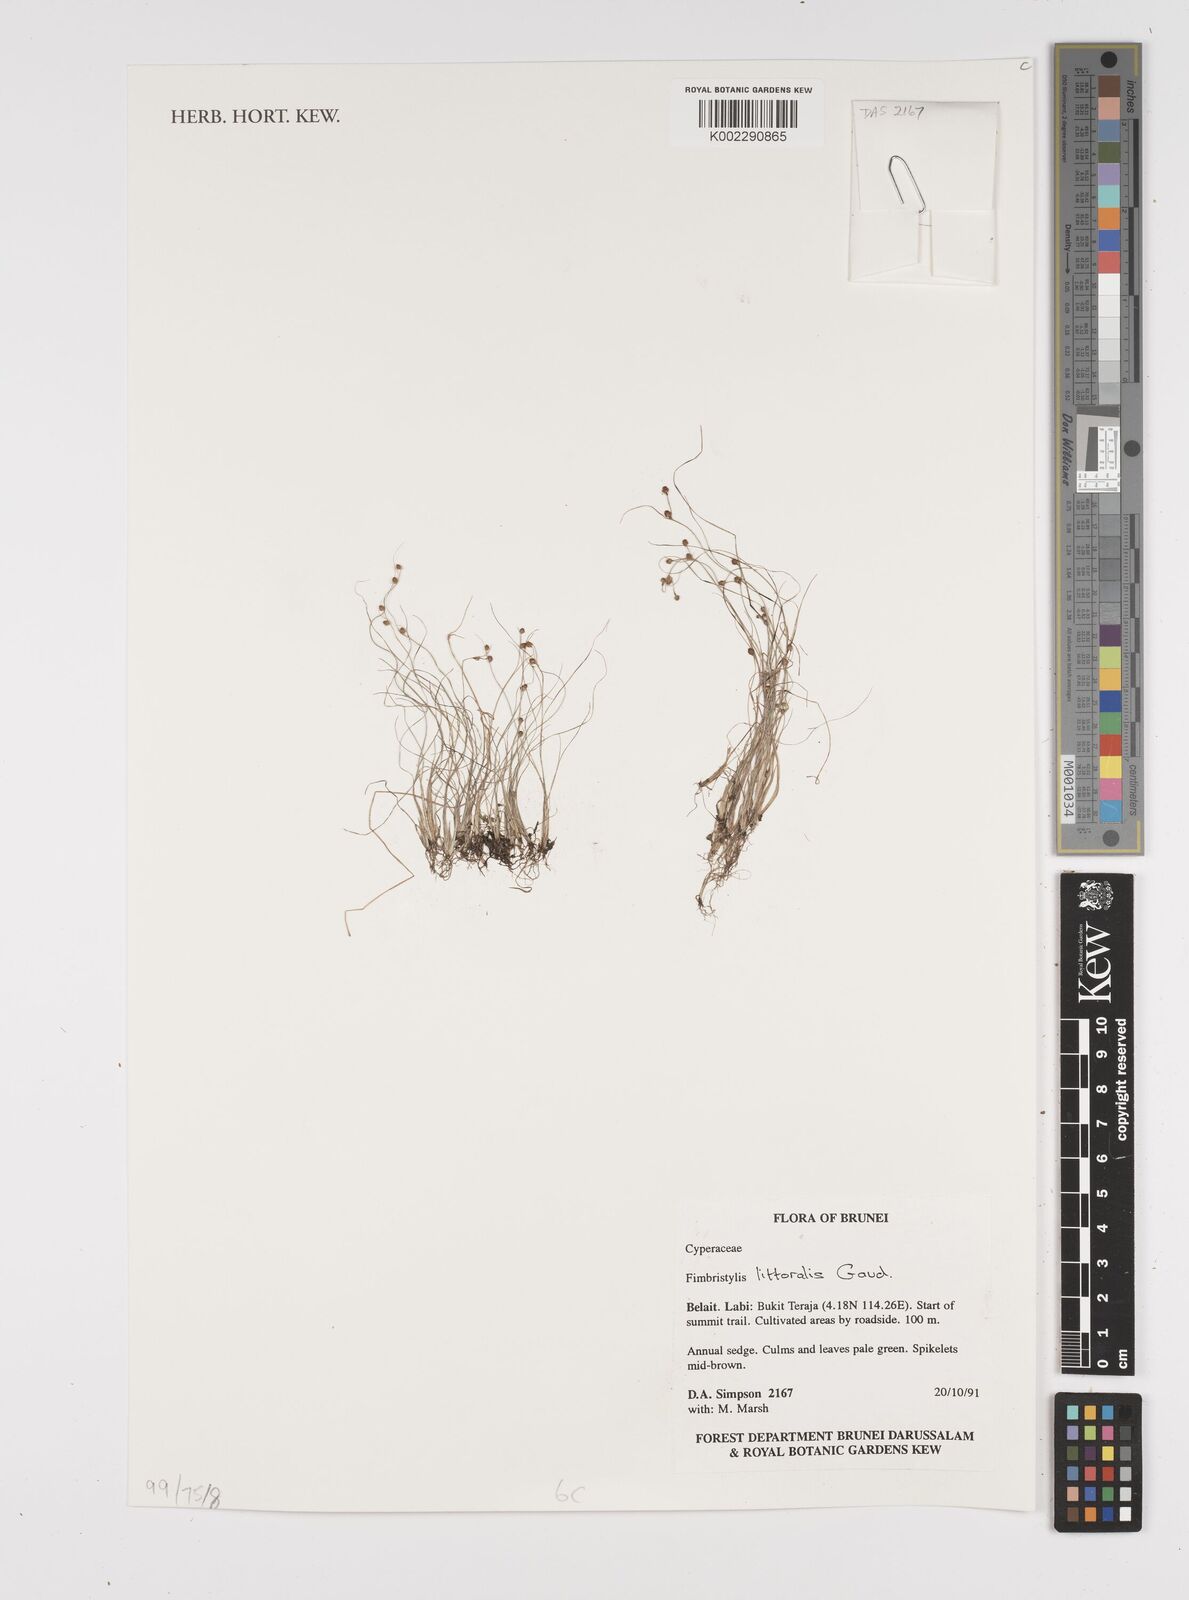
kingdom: Plantae
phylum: Tracheophyta
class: Liliopsida
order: Poales
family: Cyperaceae
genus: Fimbristylis
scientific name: Fimbristylis littoralis
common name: Fimbry
